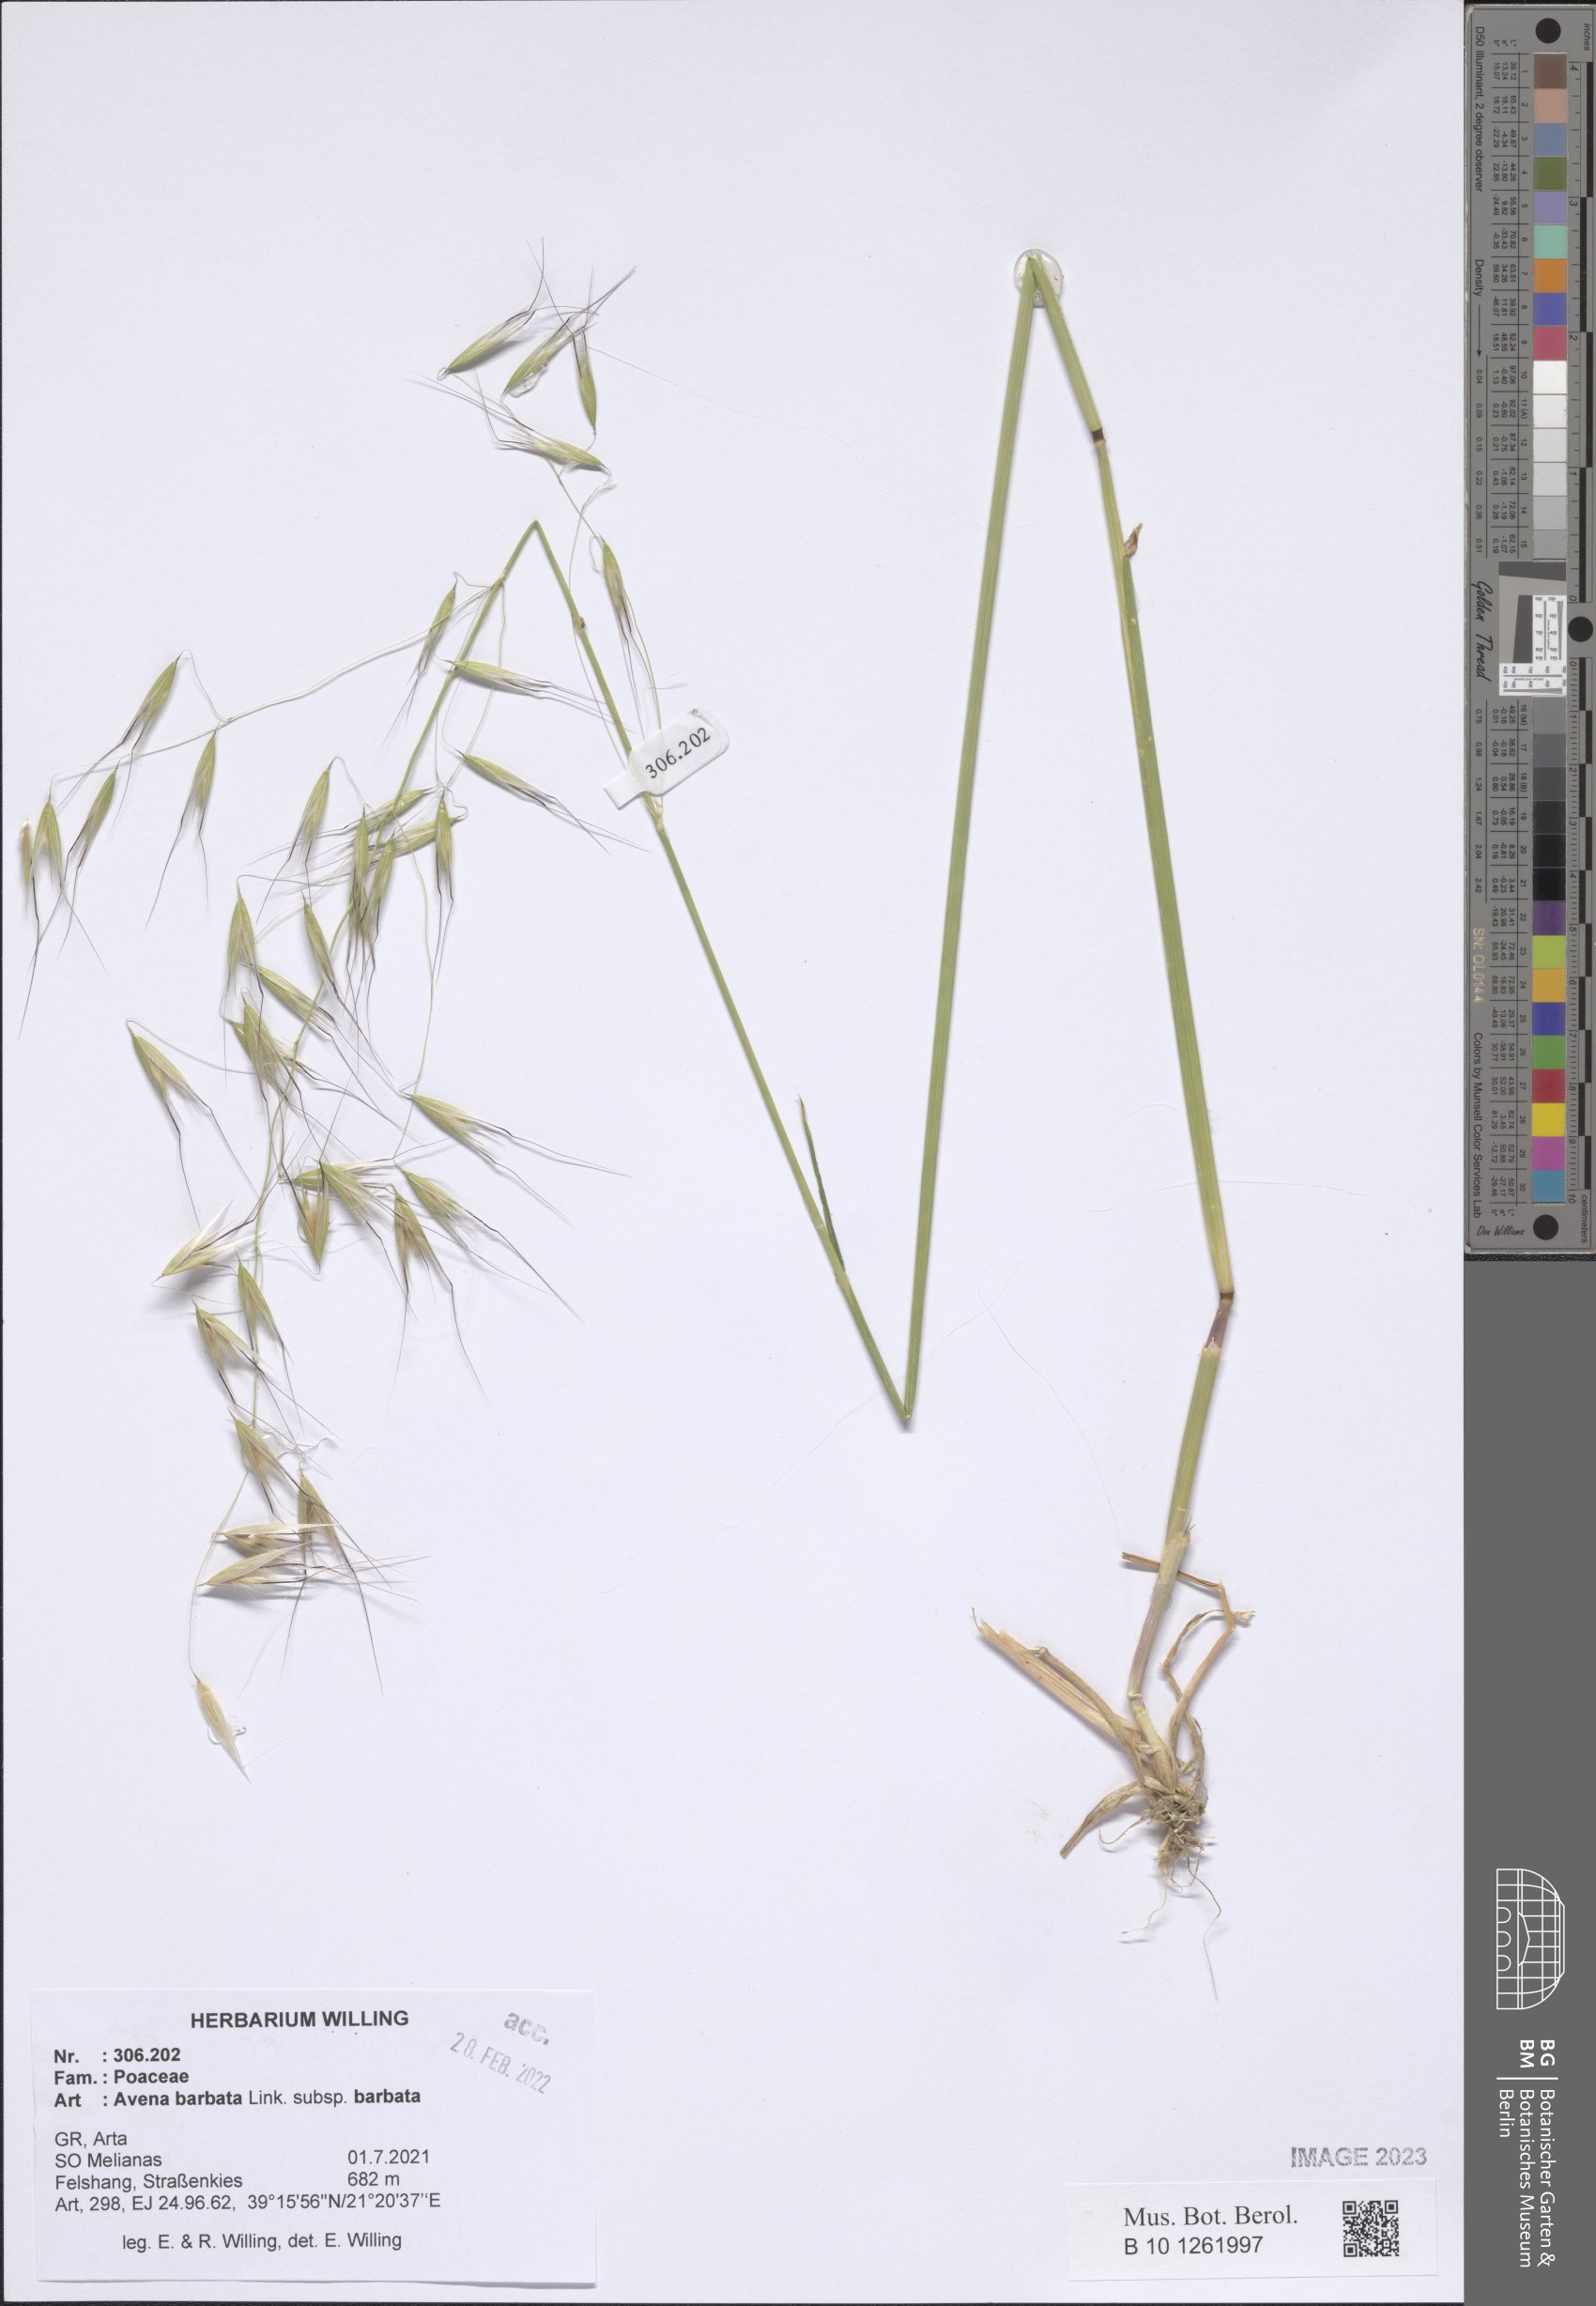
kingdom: Plantae
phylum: Tracheophyta
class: Liliopsida
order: Poales
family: Poaceae
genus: Avena
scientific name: Avena barbata
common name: Slender oat
